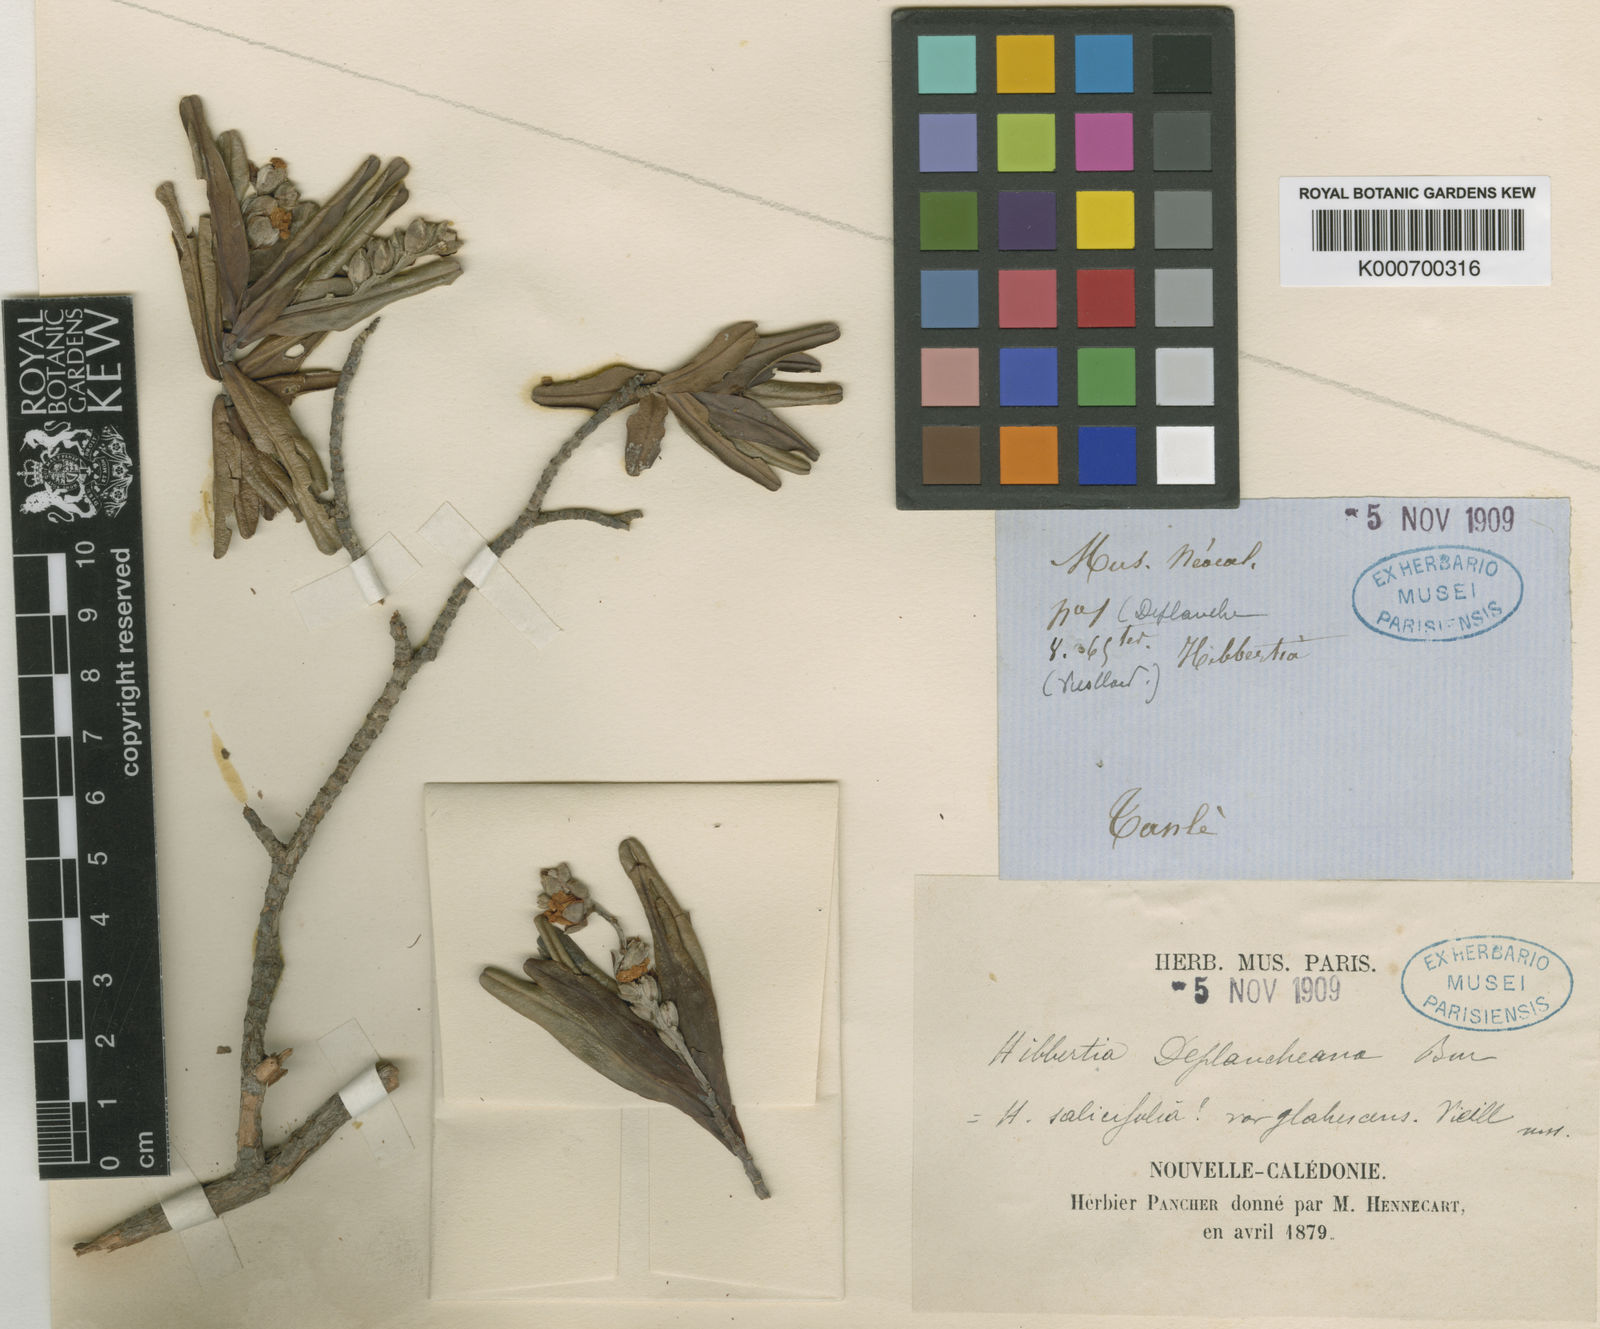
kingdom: Plantae
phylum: Tracheophyta
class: Magnoliopsida
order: Dilleniales
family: Dilleniaceae
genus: Hibbertia
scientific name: Hibbertia deplancheana
